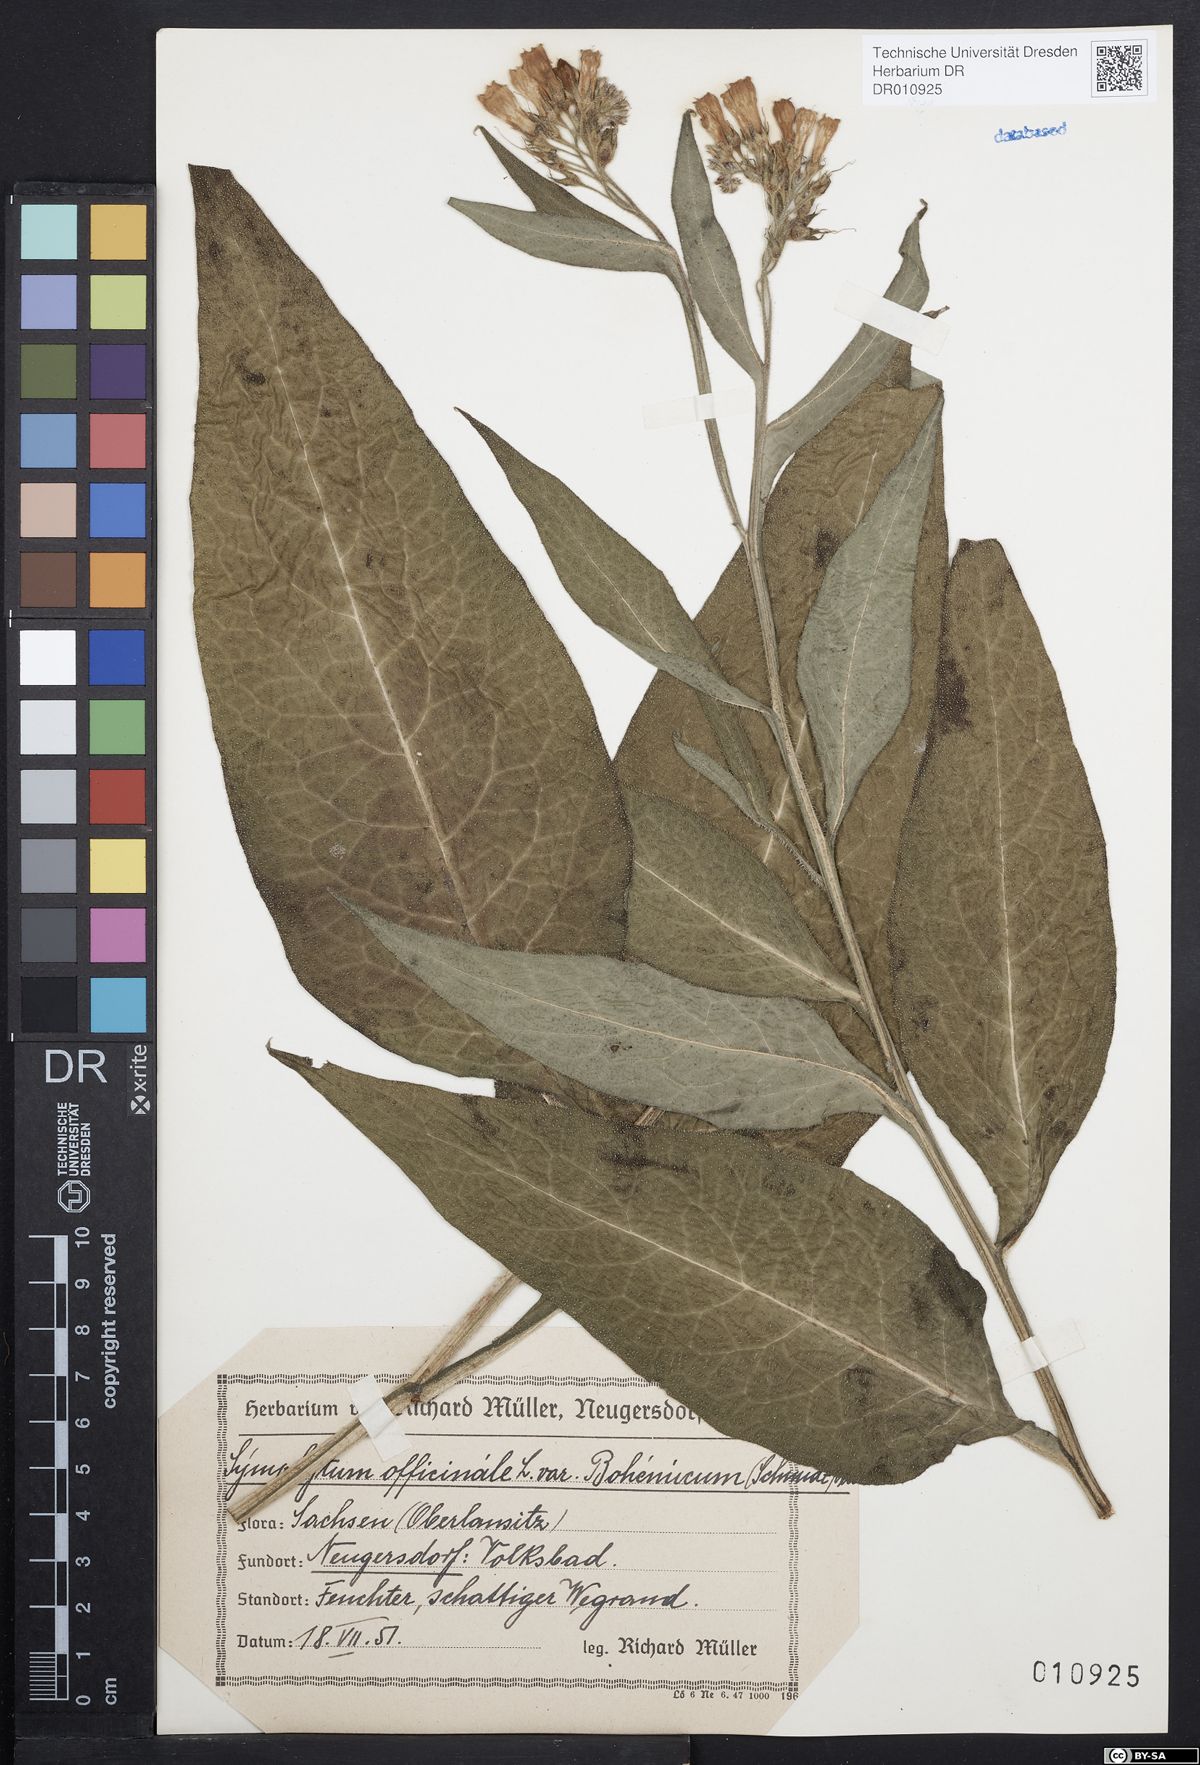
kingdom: Plantae
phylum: Tracheophyta
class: Magnoliopsida
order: Boraginales
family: Boraginaceae
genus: Symphytum
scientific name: Symphytum officinale
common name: Common comfrey
